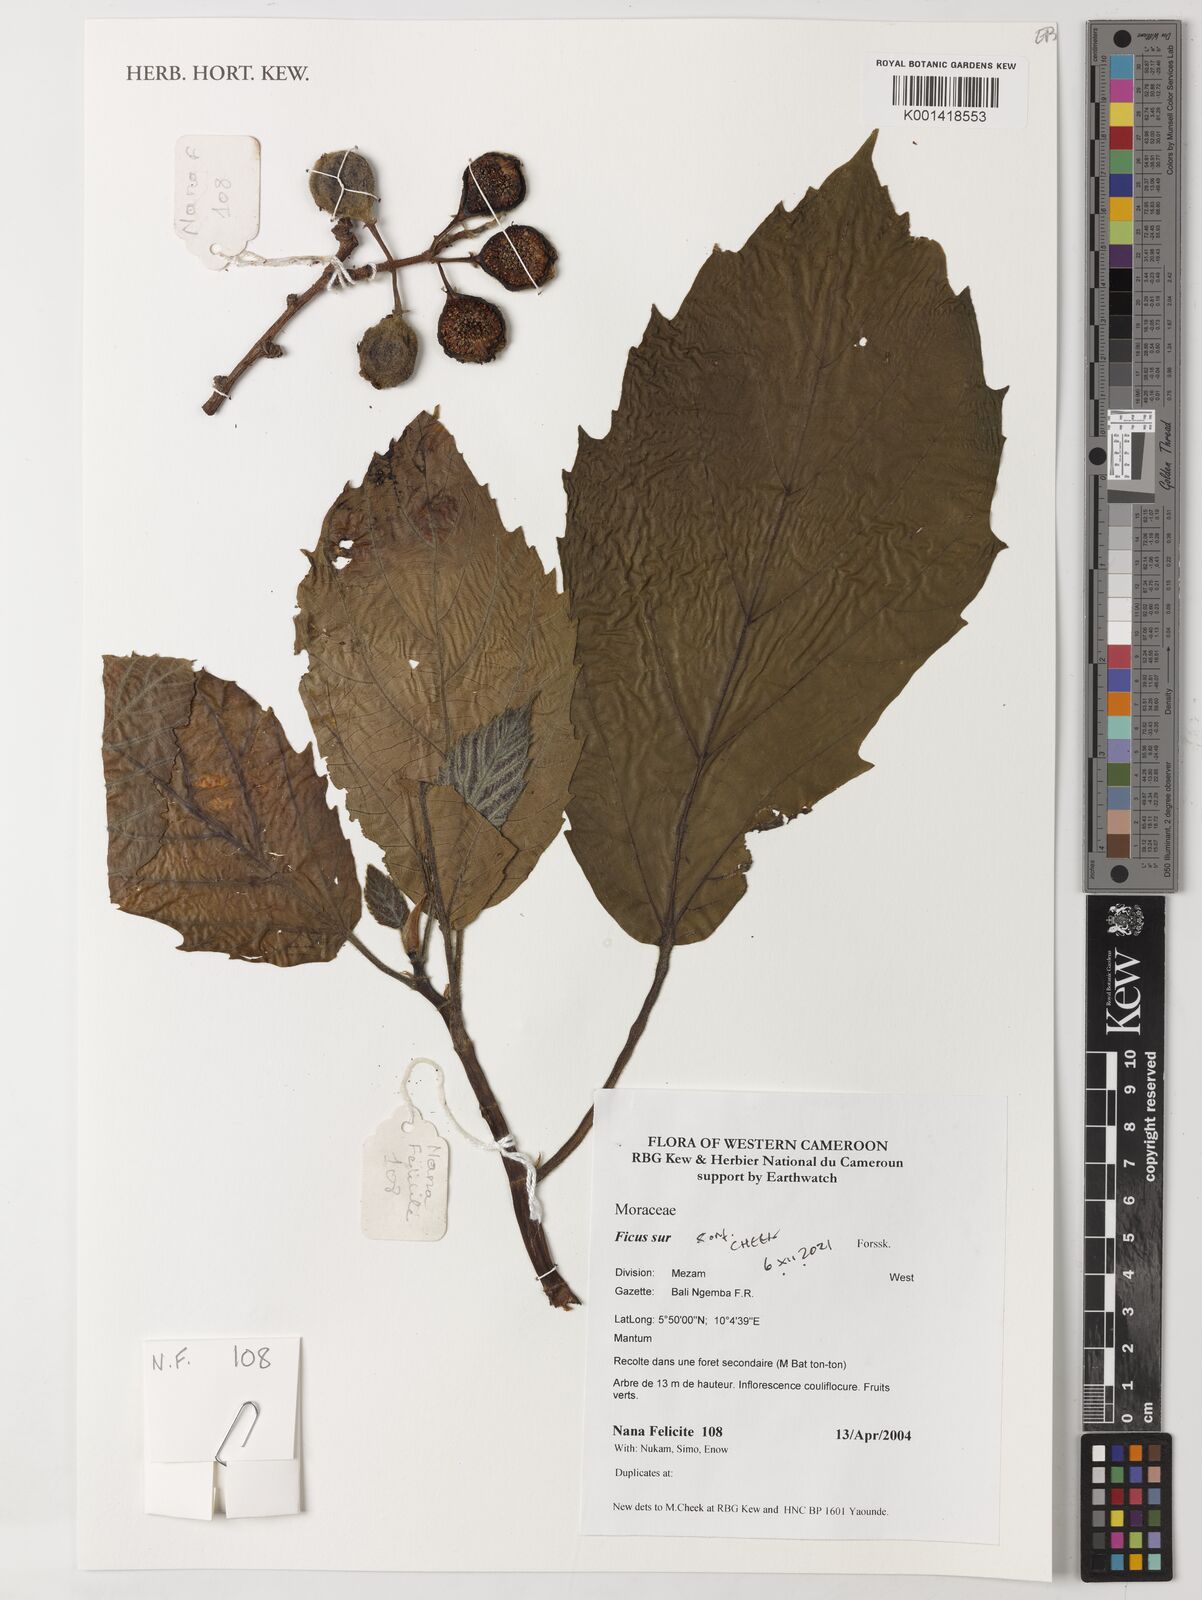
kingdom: Plantae
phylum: Tracheophyta
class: Magnoliopsida
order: Rosales
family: Moraceae
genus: Ficus
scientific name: Ficus sur
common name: Cape fig
